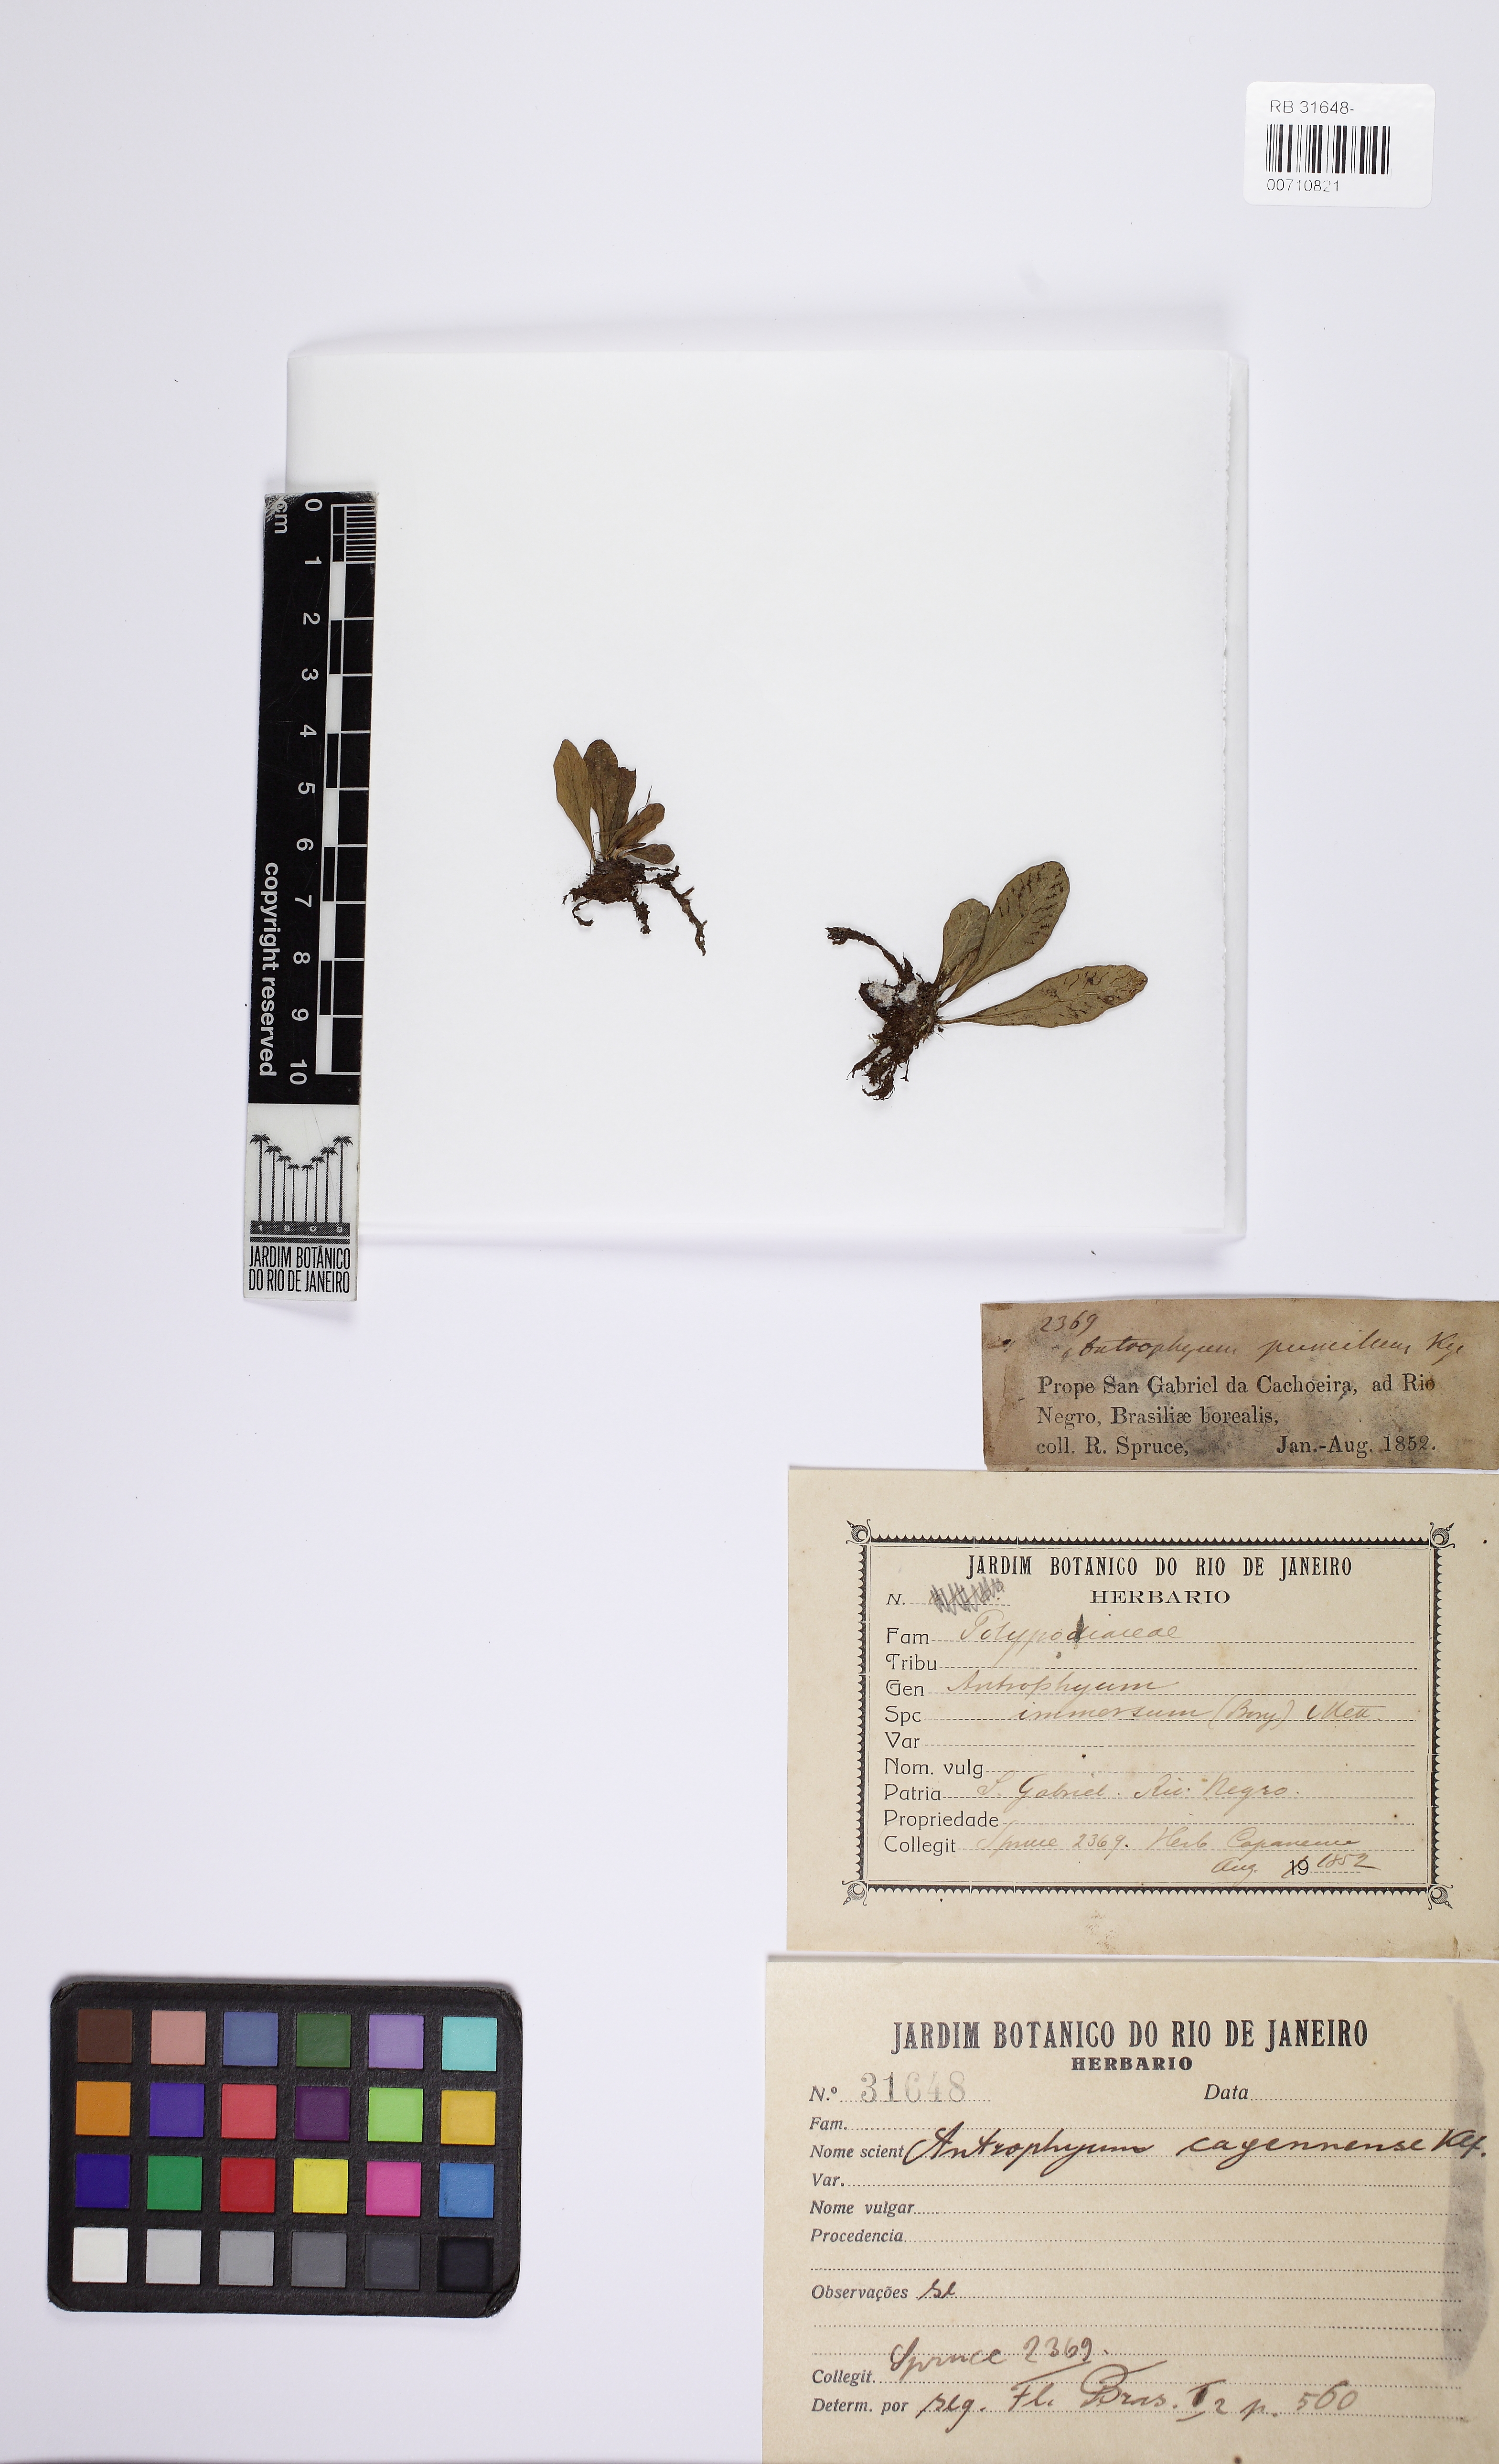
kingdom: Plantae
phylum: Tracheophyta
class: Polypodiopsida
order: Polypodiales
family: Pteridaceae
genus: Polytaenium
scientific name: Polytaenium guayanense
